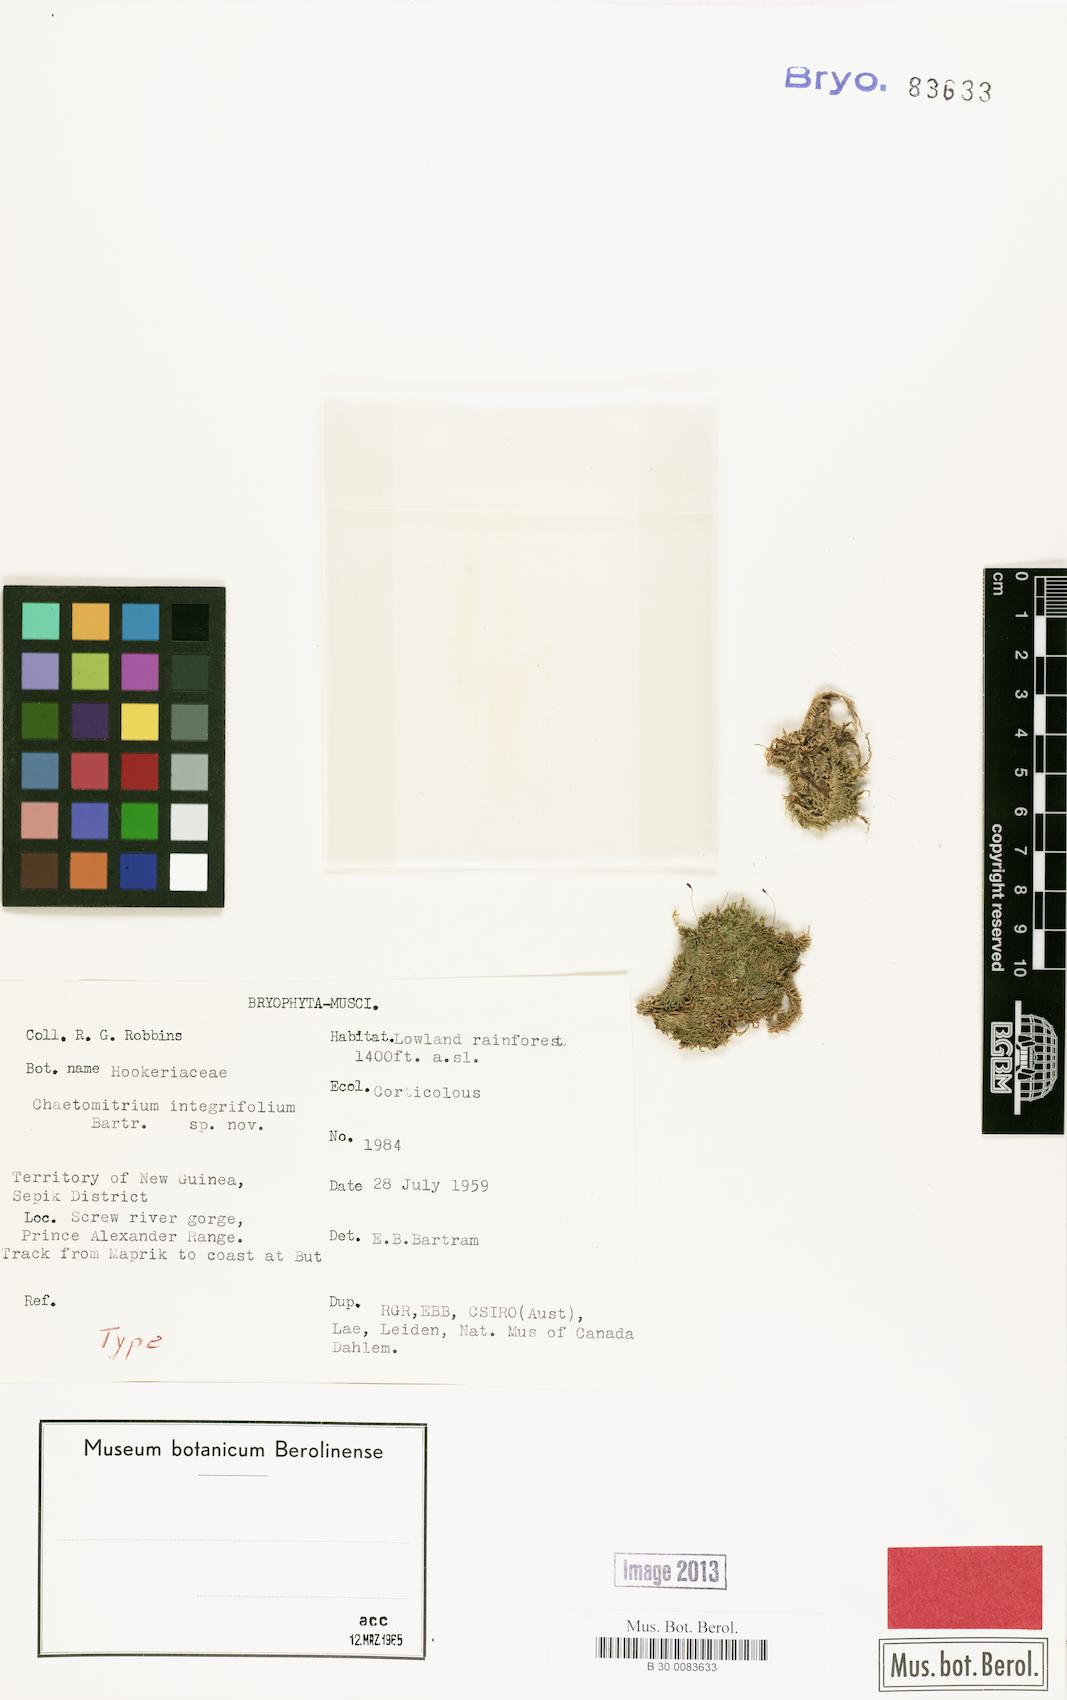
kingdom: Plantae
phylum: Bryophyta
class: Bryopsida
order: Hypnales
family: Symphyodontaceae
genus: Chaetomitrium
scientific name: Chaetomitrium integrifolium
